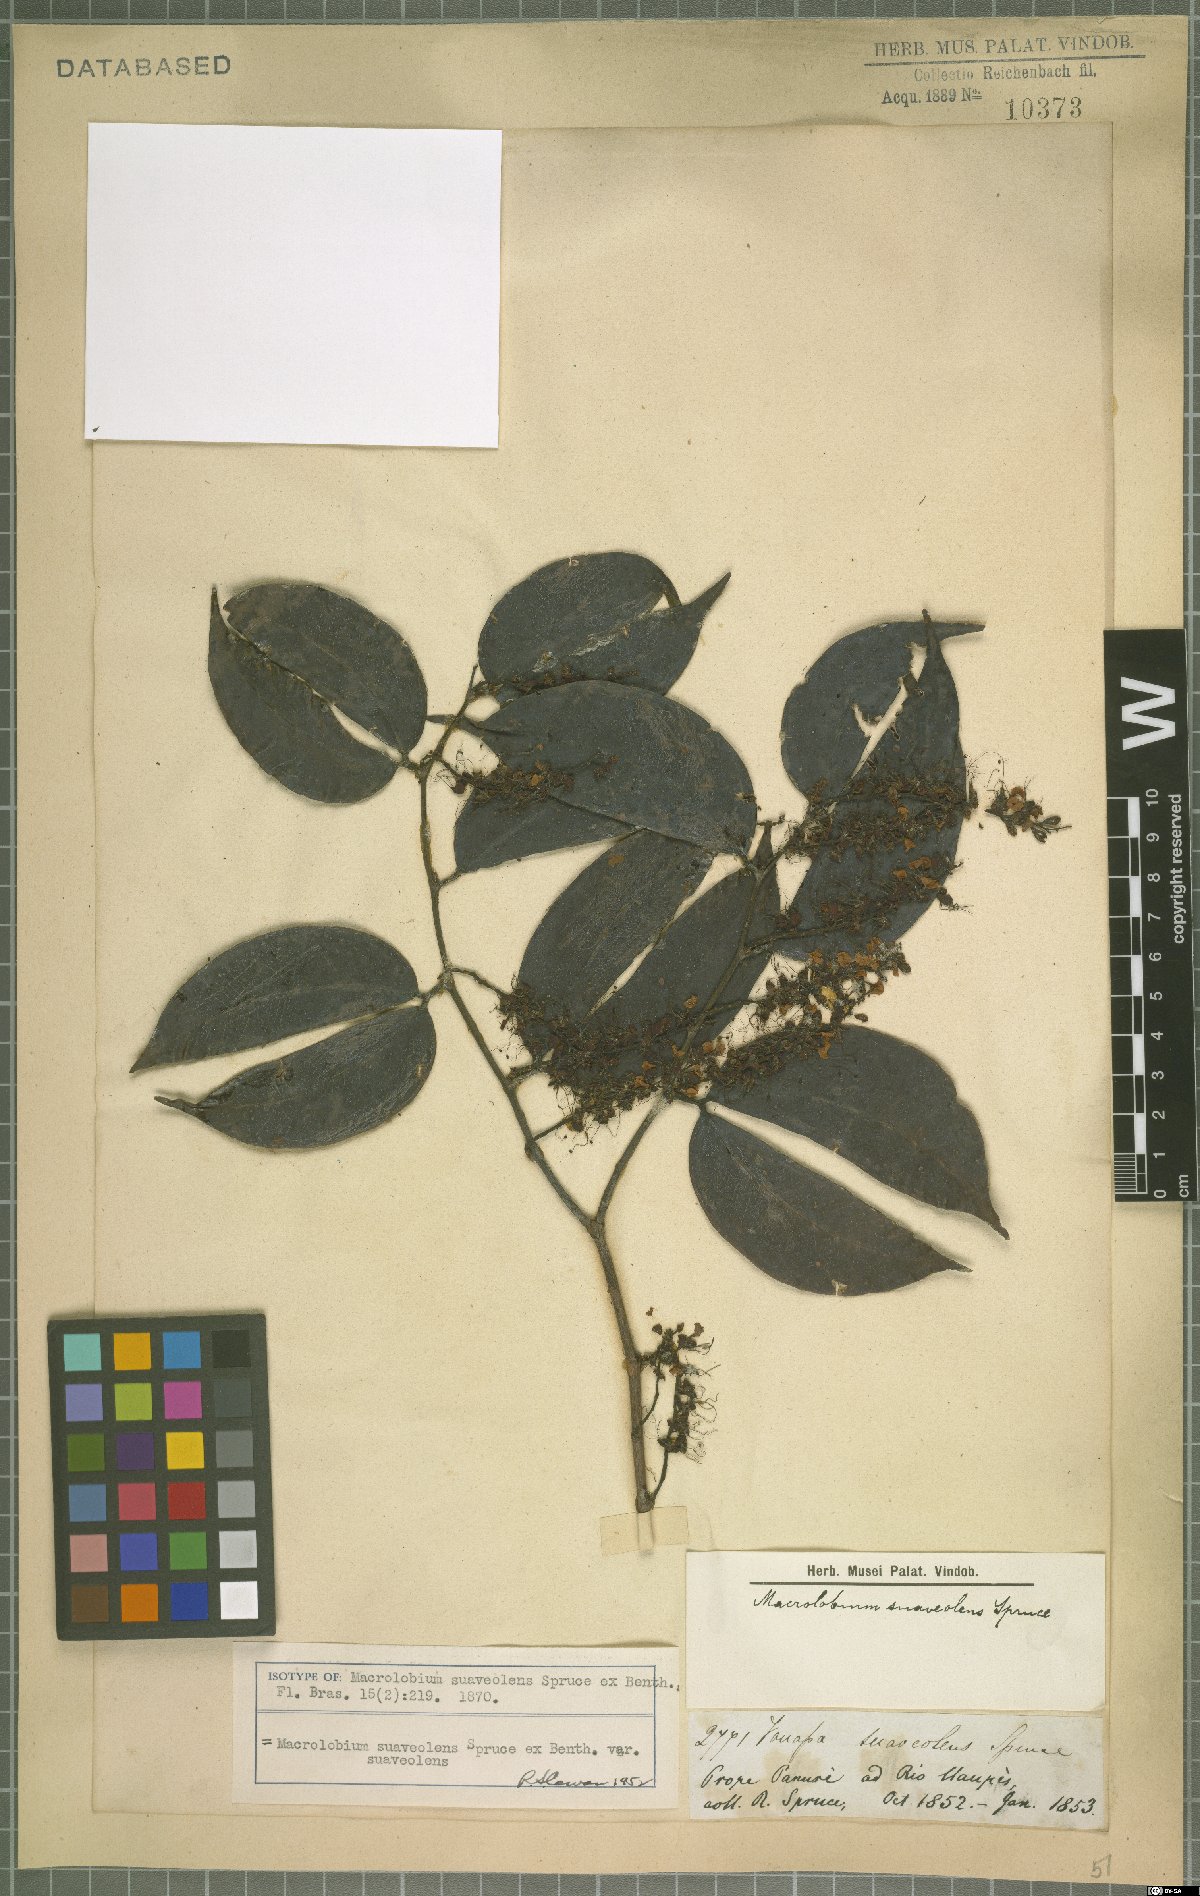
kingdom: Plantae
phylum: Tracheophyta
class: Magnoliopsida
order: Fabales
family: Fabaceae
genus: Macrolobium
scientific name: Macrolobium suaveolens
